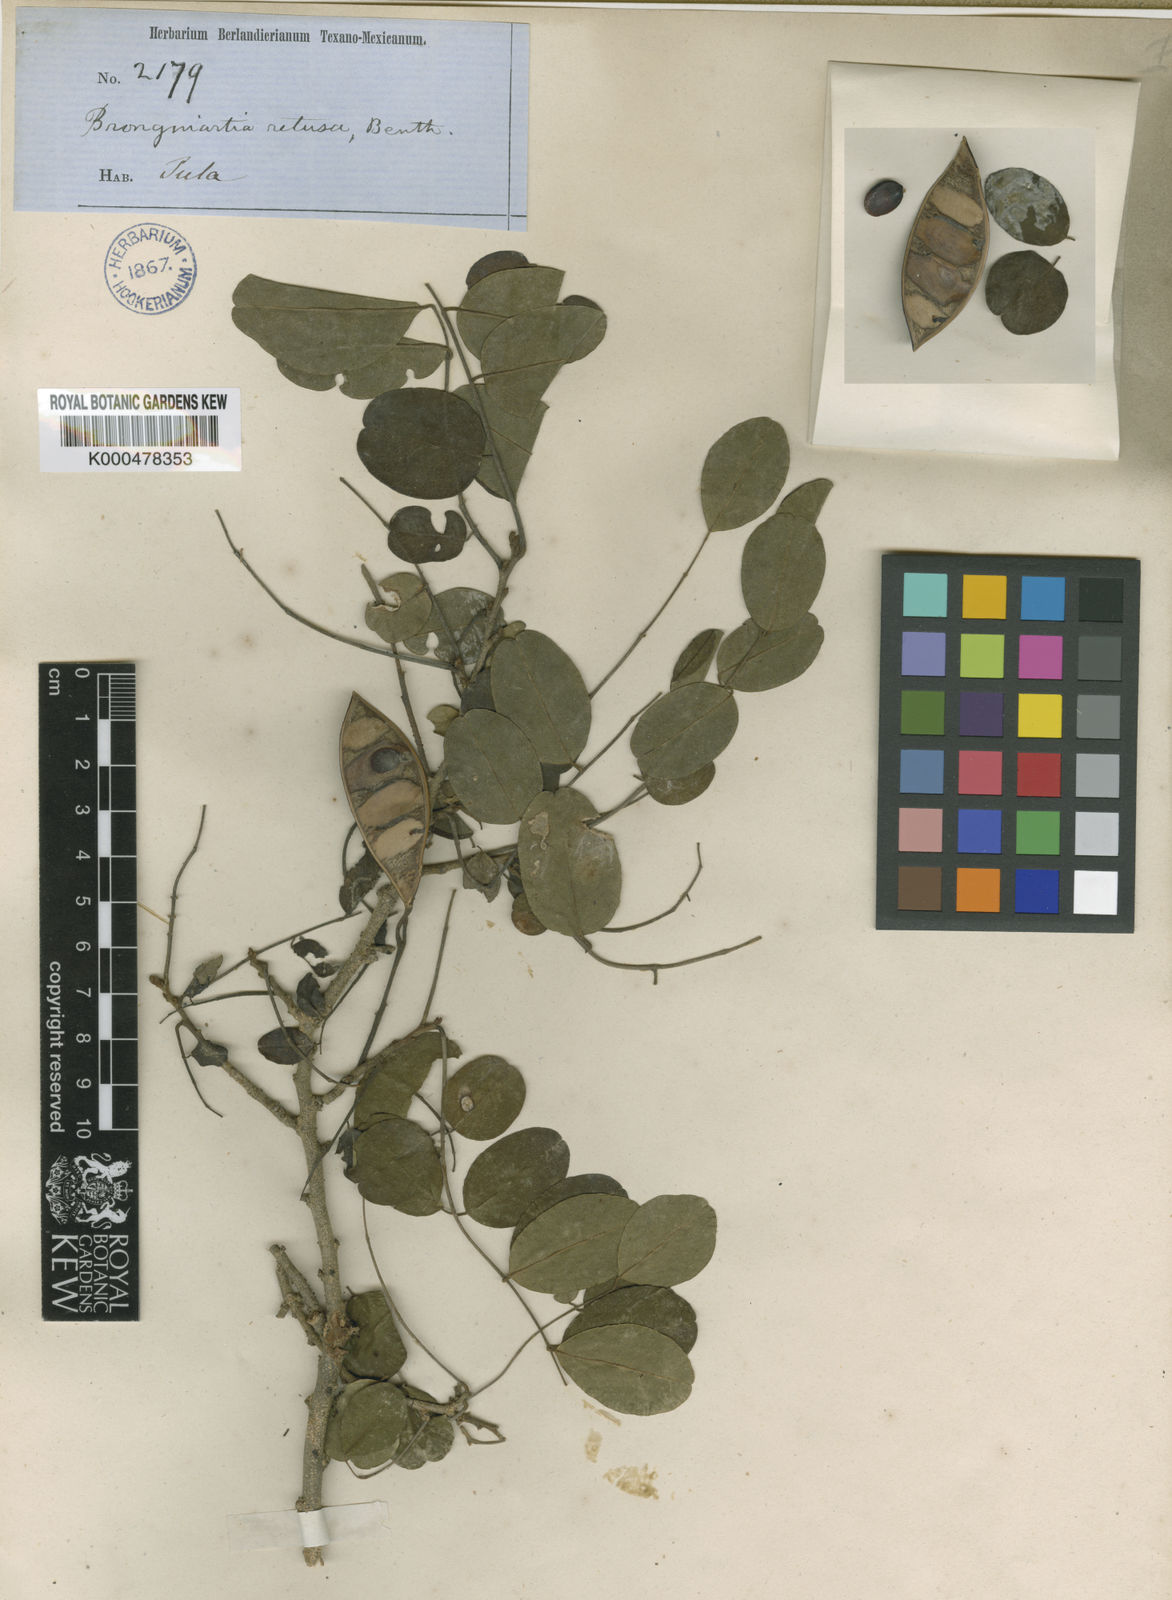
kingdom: Plantae
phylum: Tracheophyta
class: Magnoliopsida
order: Fabales
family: Fabaceae
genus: Harpalyce
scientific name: Harpalyce arborescens
